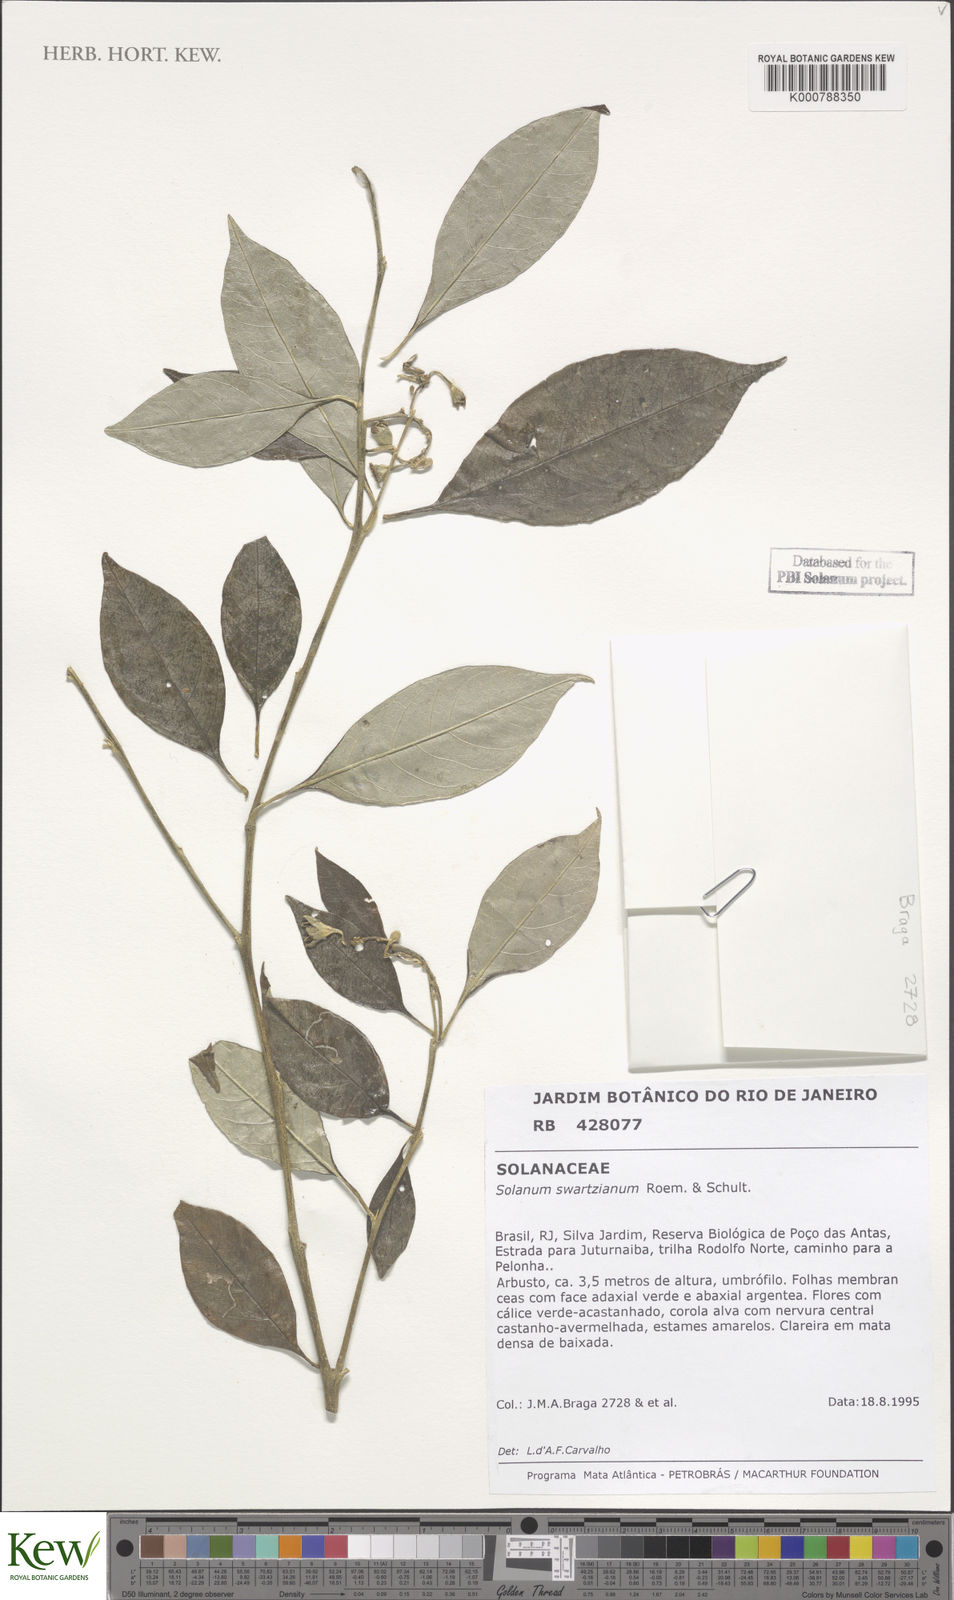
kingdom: Plantae
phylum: Tracheophyta
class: Magnoliopsida
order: Solanales
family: Solanaceae
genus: Solanum
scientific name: Solanum swartzianum
